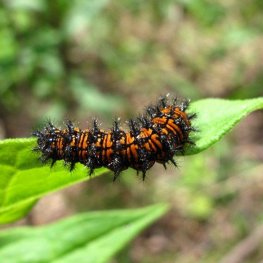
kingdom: Animalia
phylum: Arthropoda
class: Insecta
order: Lepidoptera
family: Nymphalidae
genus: Chlosyne
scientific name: Chlosyne harrisii
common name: Harris's Checkerspot
